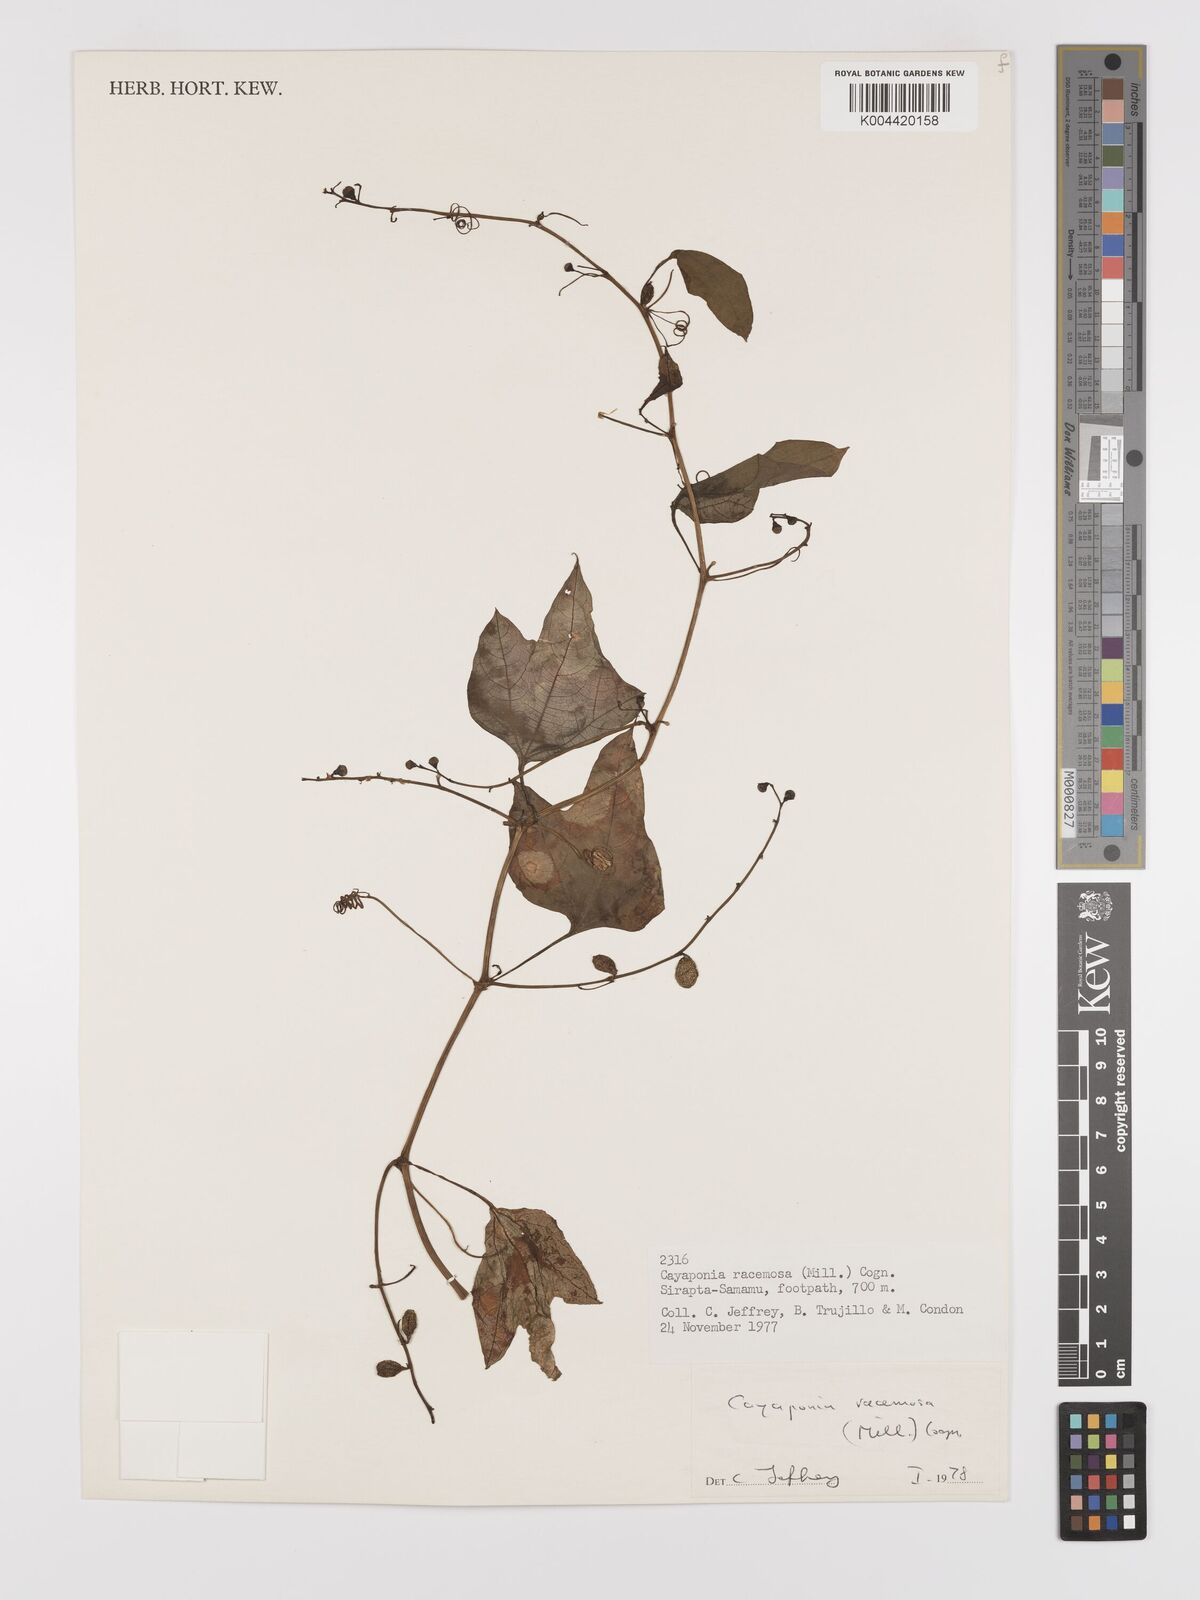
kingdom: Plantae
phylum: Tracheophyta
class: Magnoliopsida
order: Cucurbitales
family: Cucurbitaceae
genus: Cayaponia
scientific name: Cayaponia racemosa
